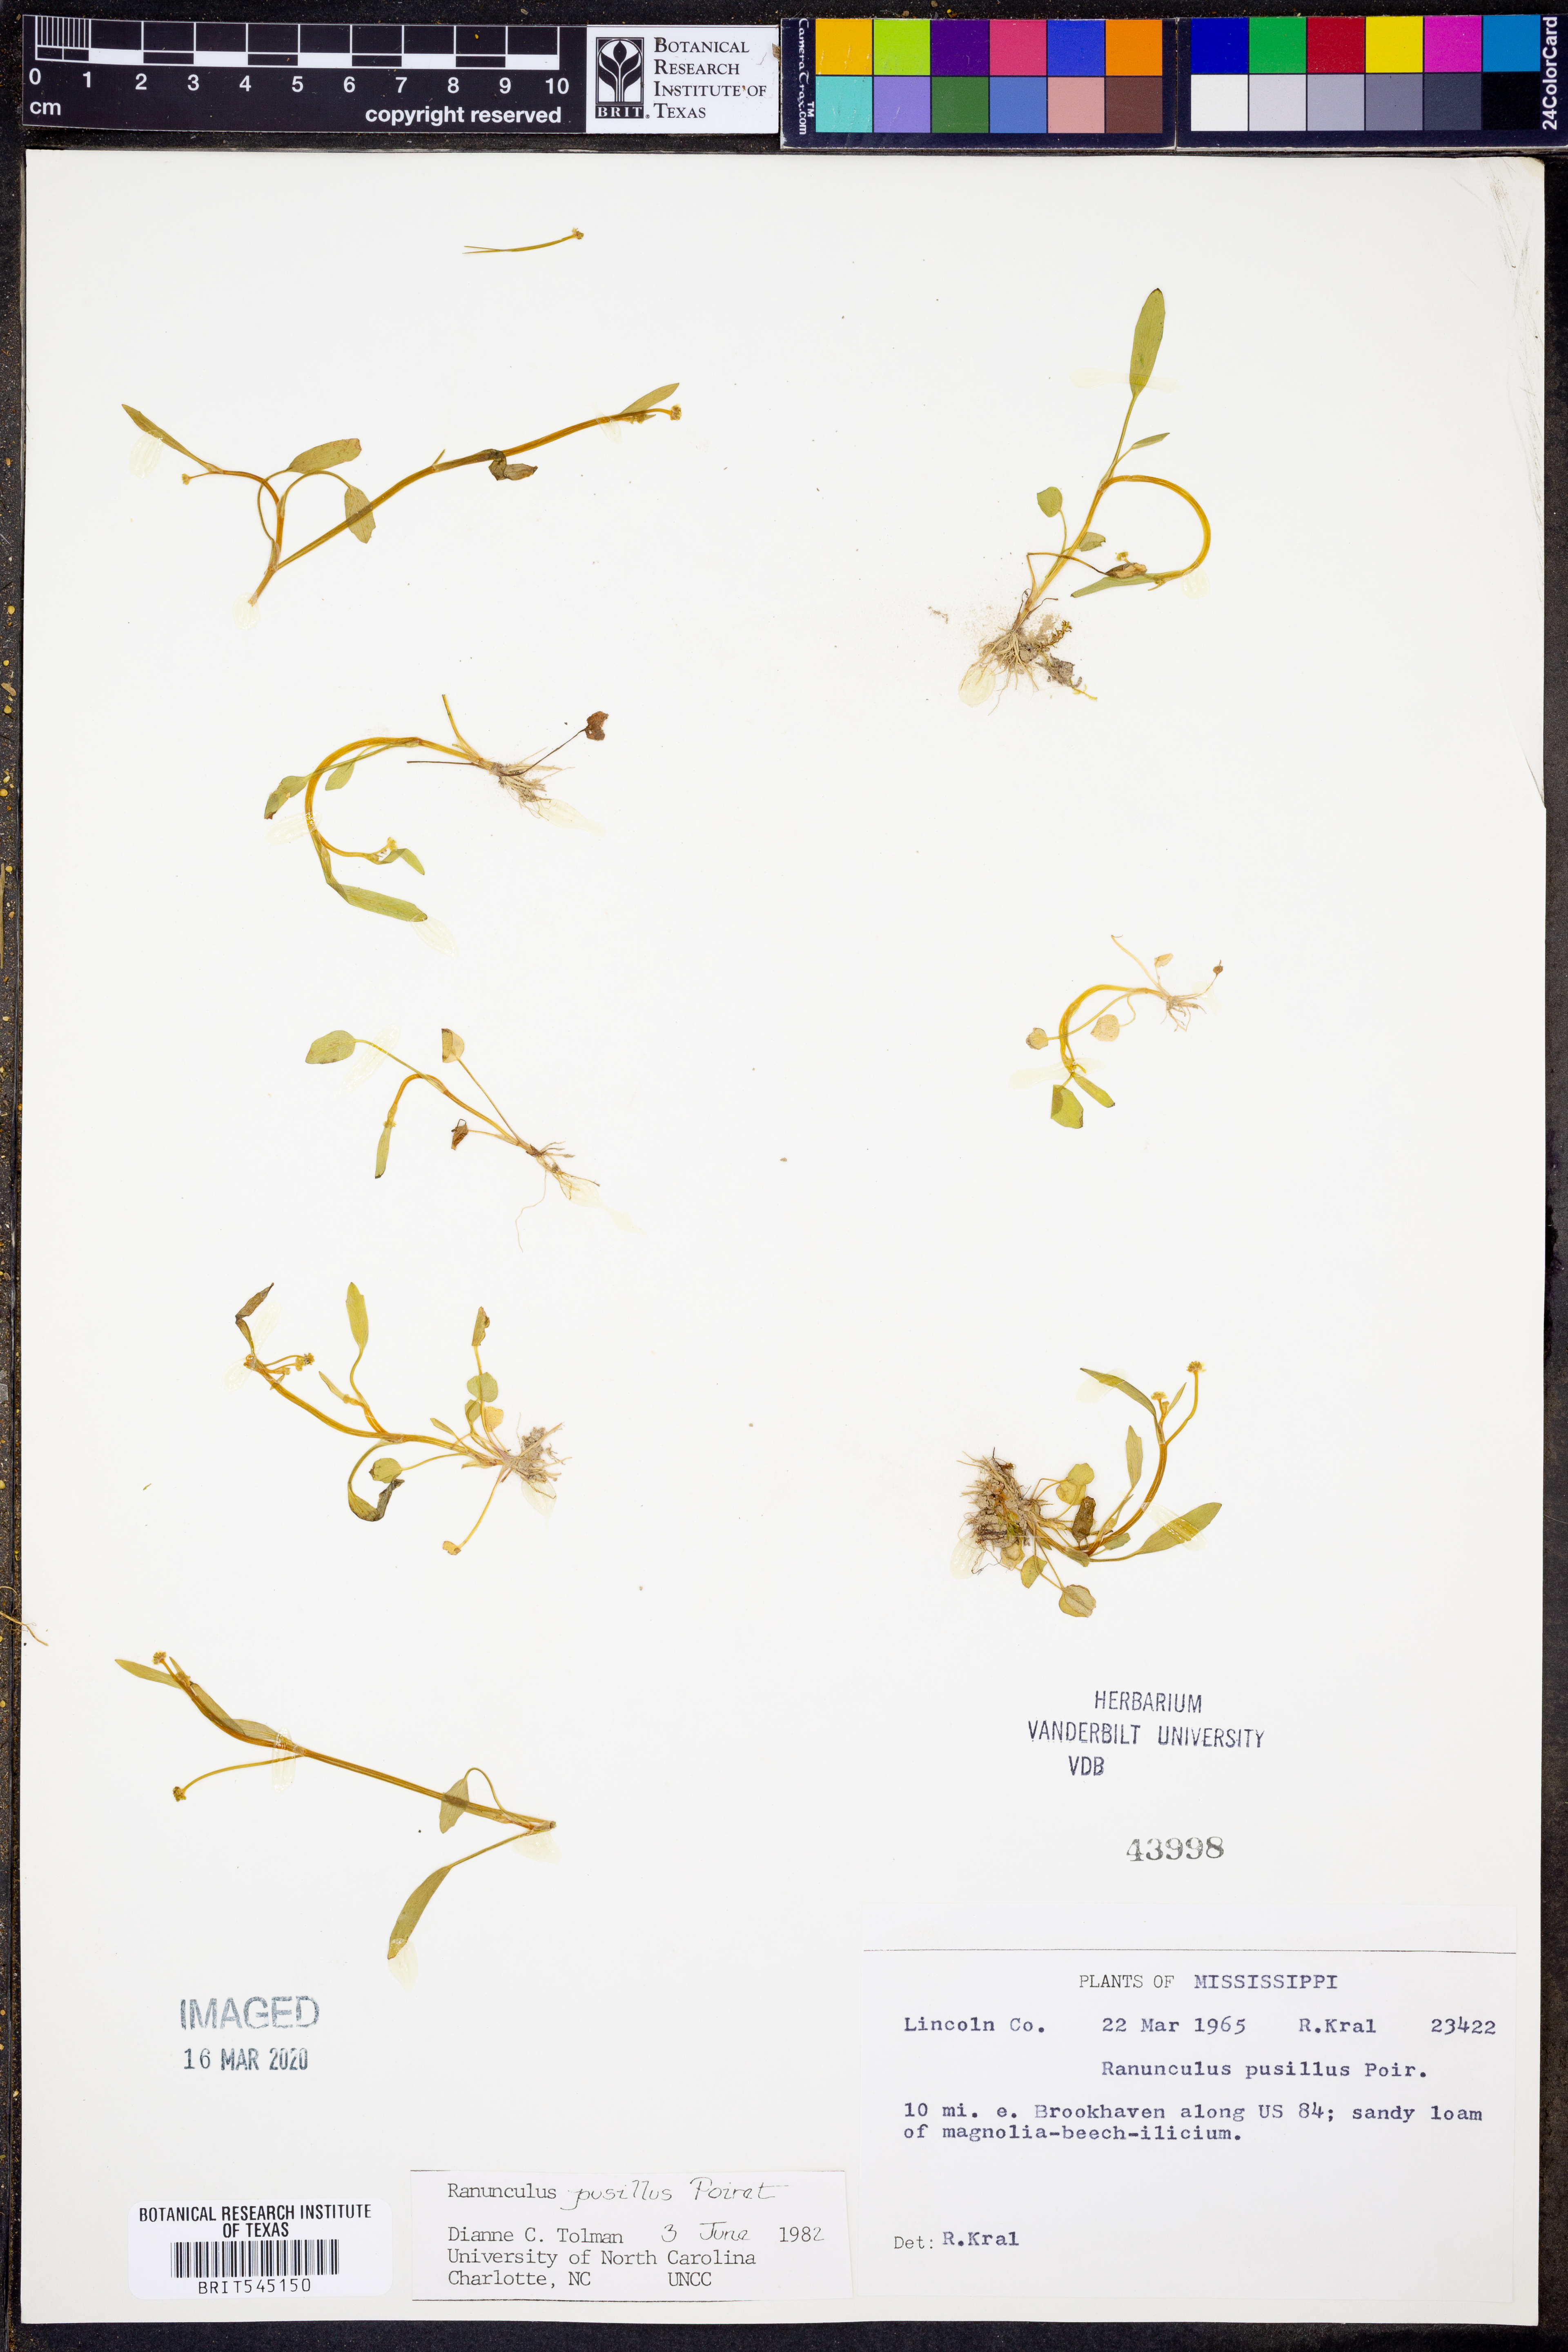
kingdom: Plantae
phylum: Tracheophyta
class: Magnoliopsida
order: Ranunculales
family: Ranunculaceae
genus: Ranunculus
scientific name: Ranunculus pusillus
